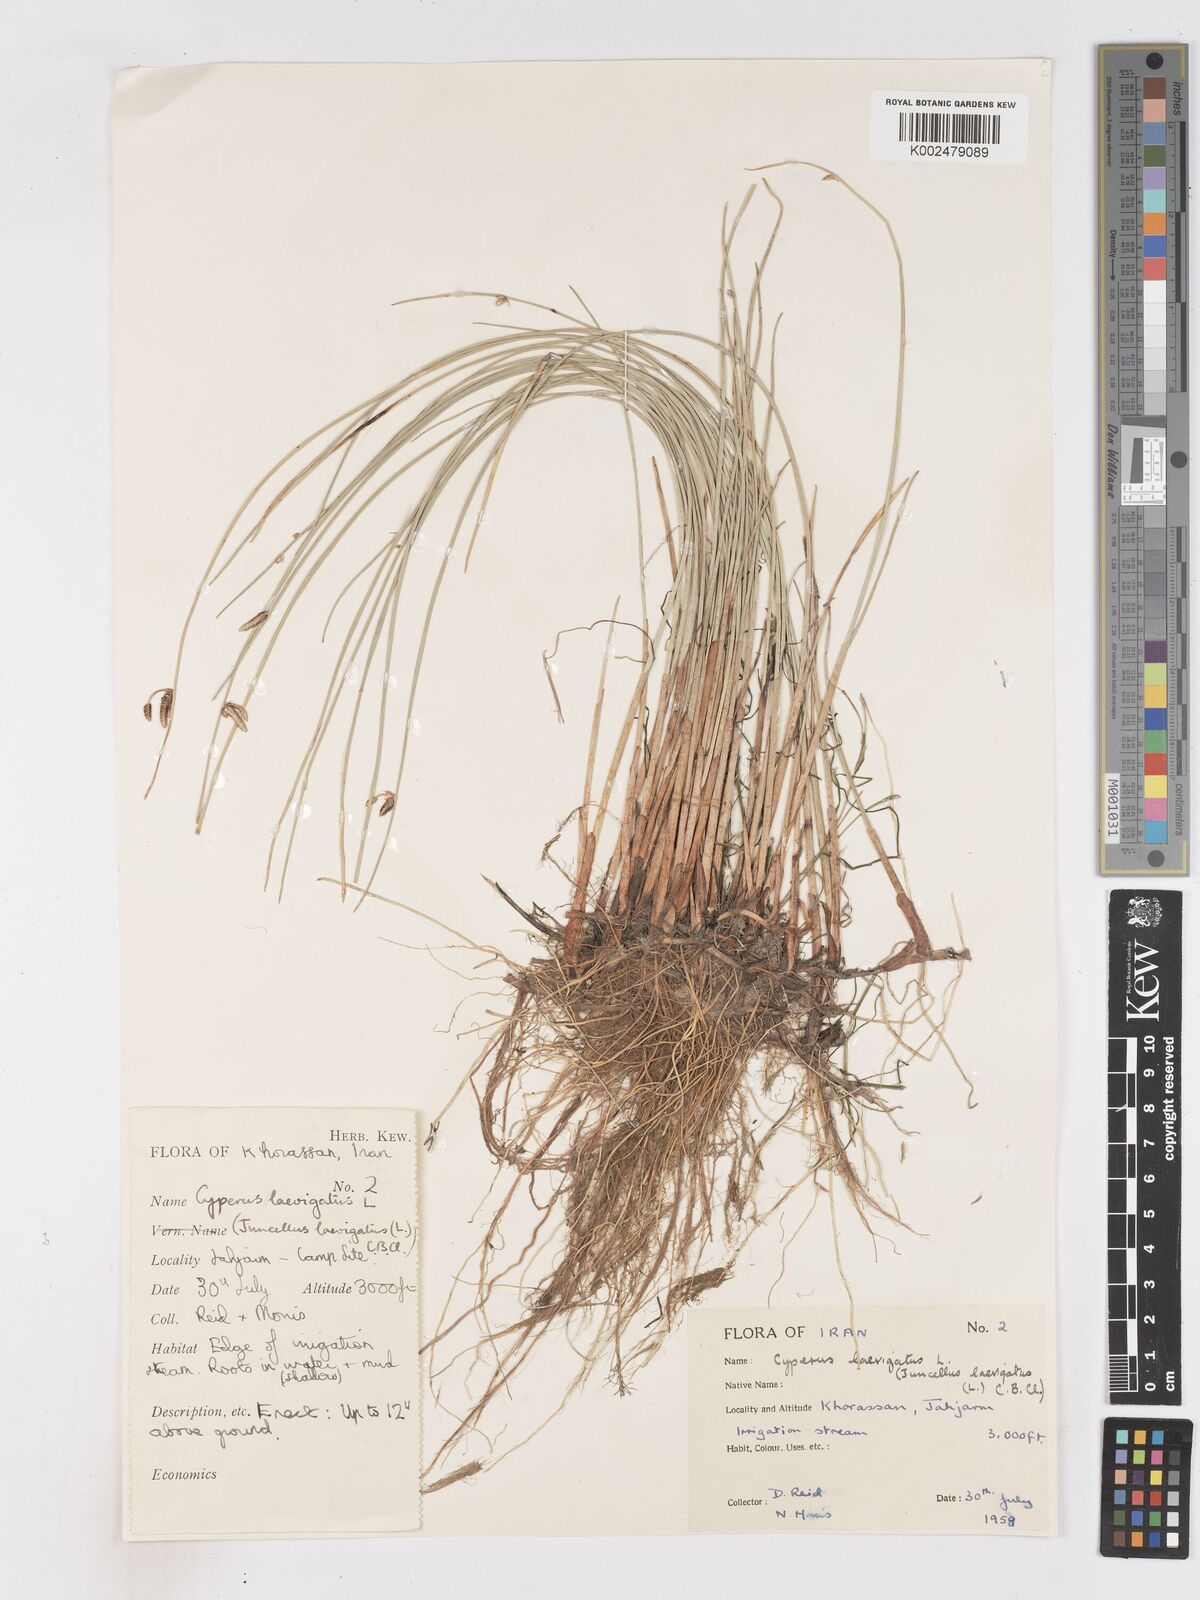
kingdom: Plantae
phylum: Tracheophyta
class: Liliopsida
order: Poales
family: Cyperaceae
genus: Cyperus
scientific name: Cyperus laevigatus
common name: Smooth flat sedge
